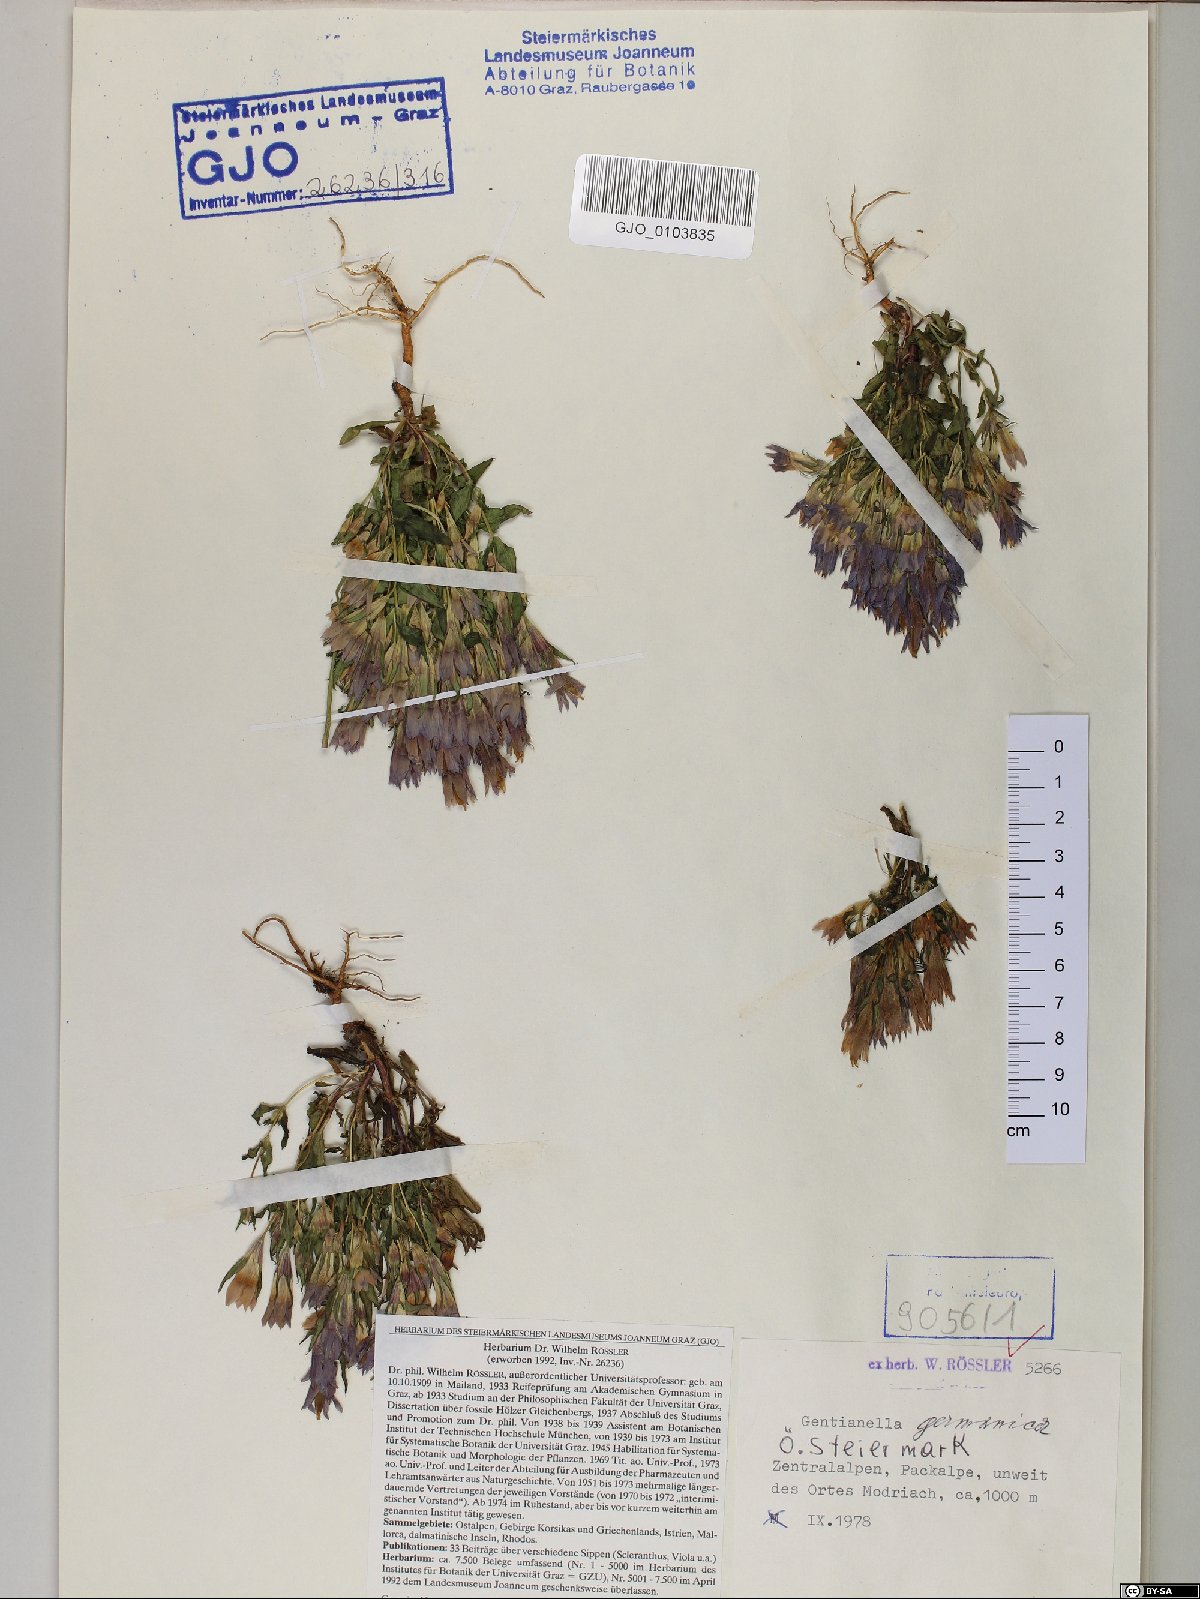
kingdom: Plantae
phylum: Tracheophyta
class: Magnoliopsida
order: Gentianales
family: Gentianaceae
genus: Gentianella
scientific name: Gentianella germanica
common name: Chiltern-gentian
